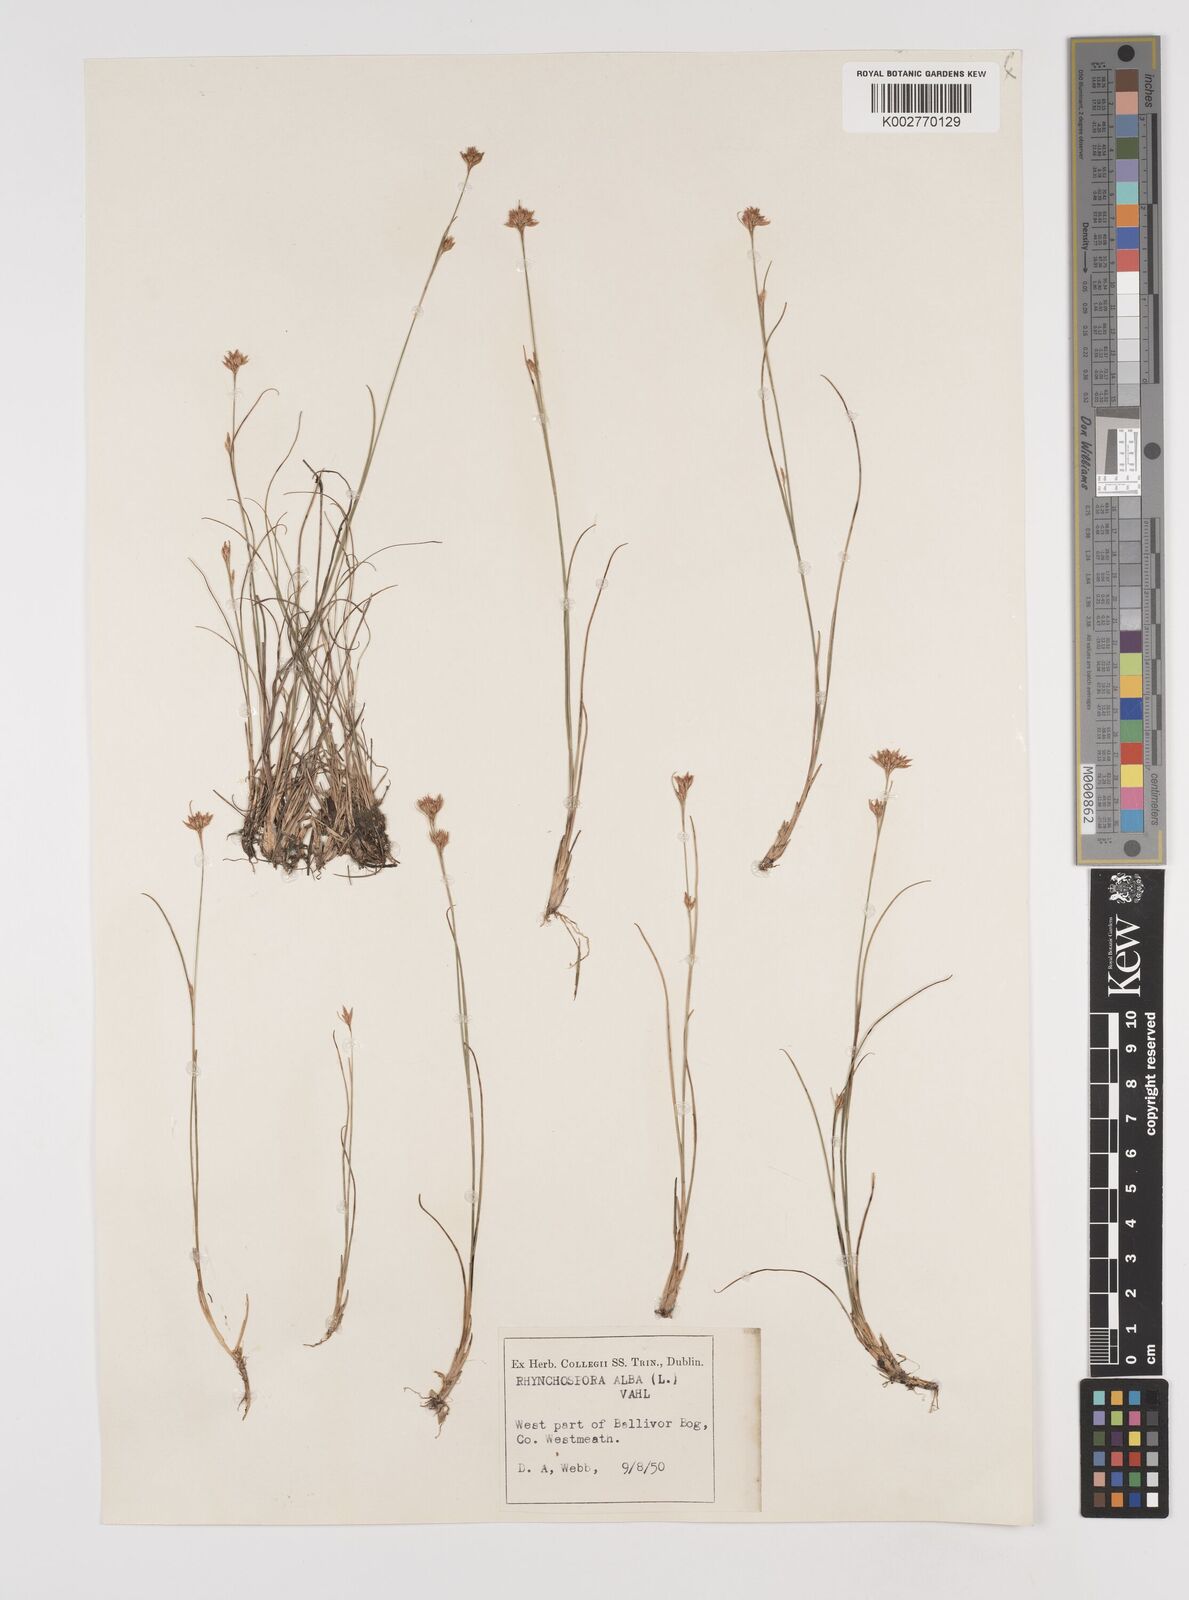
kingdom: Plantae
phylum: Tracheophyta
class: Liliopsida
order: Poales
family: Cyperaceae
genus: Rhynchospora
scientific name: Rhynchospora alba
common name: White beak-sedge
